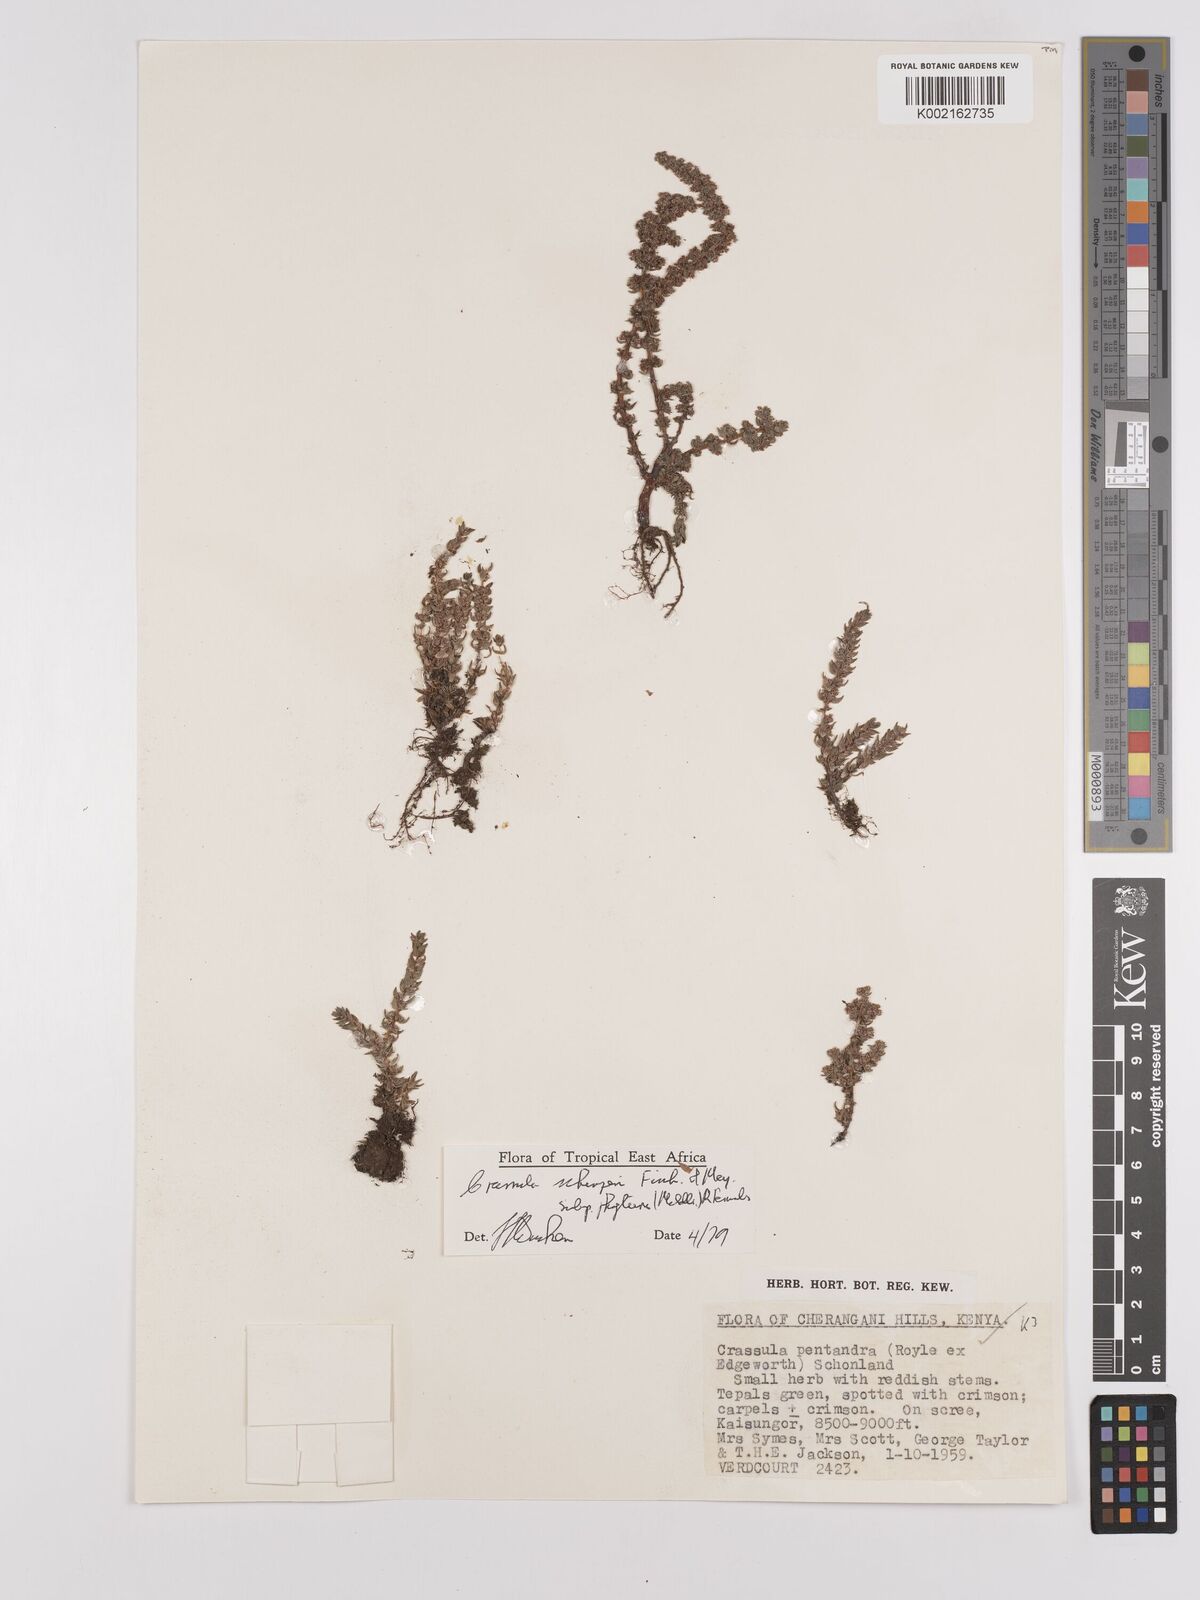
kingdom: Plantae
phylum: Tracheophyta
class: Magnoliopsida
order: Saxifragales
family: Crassulaceae
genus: Crassula
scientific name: Crassula schimperi
